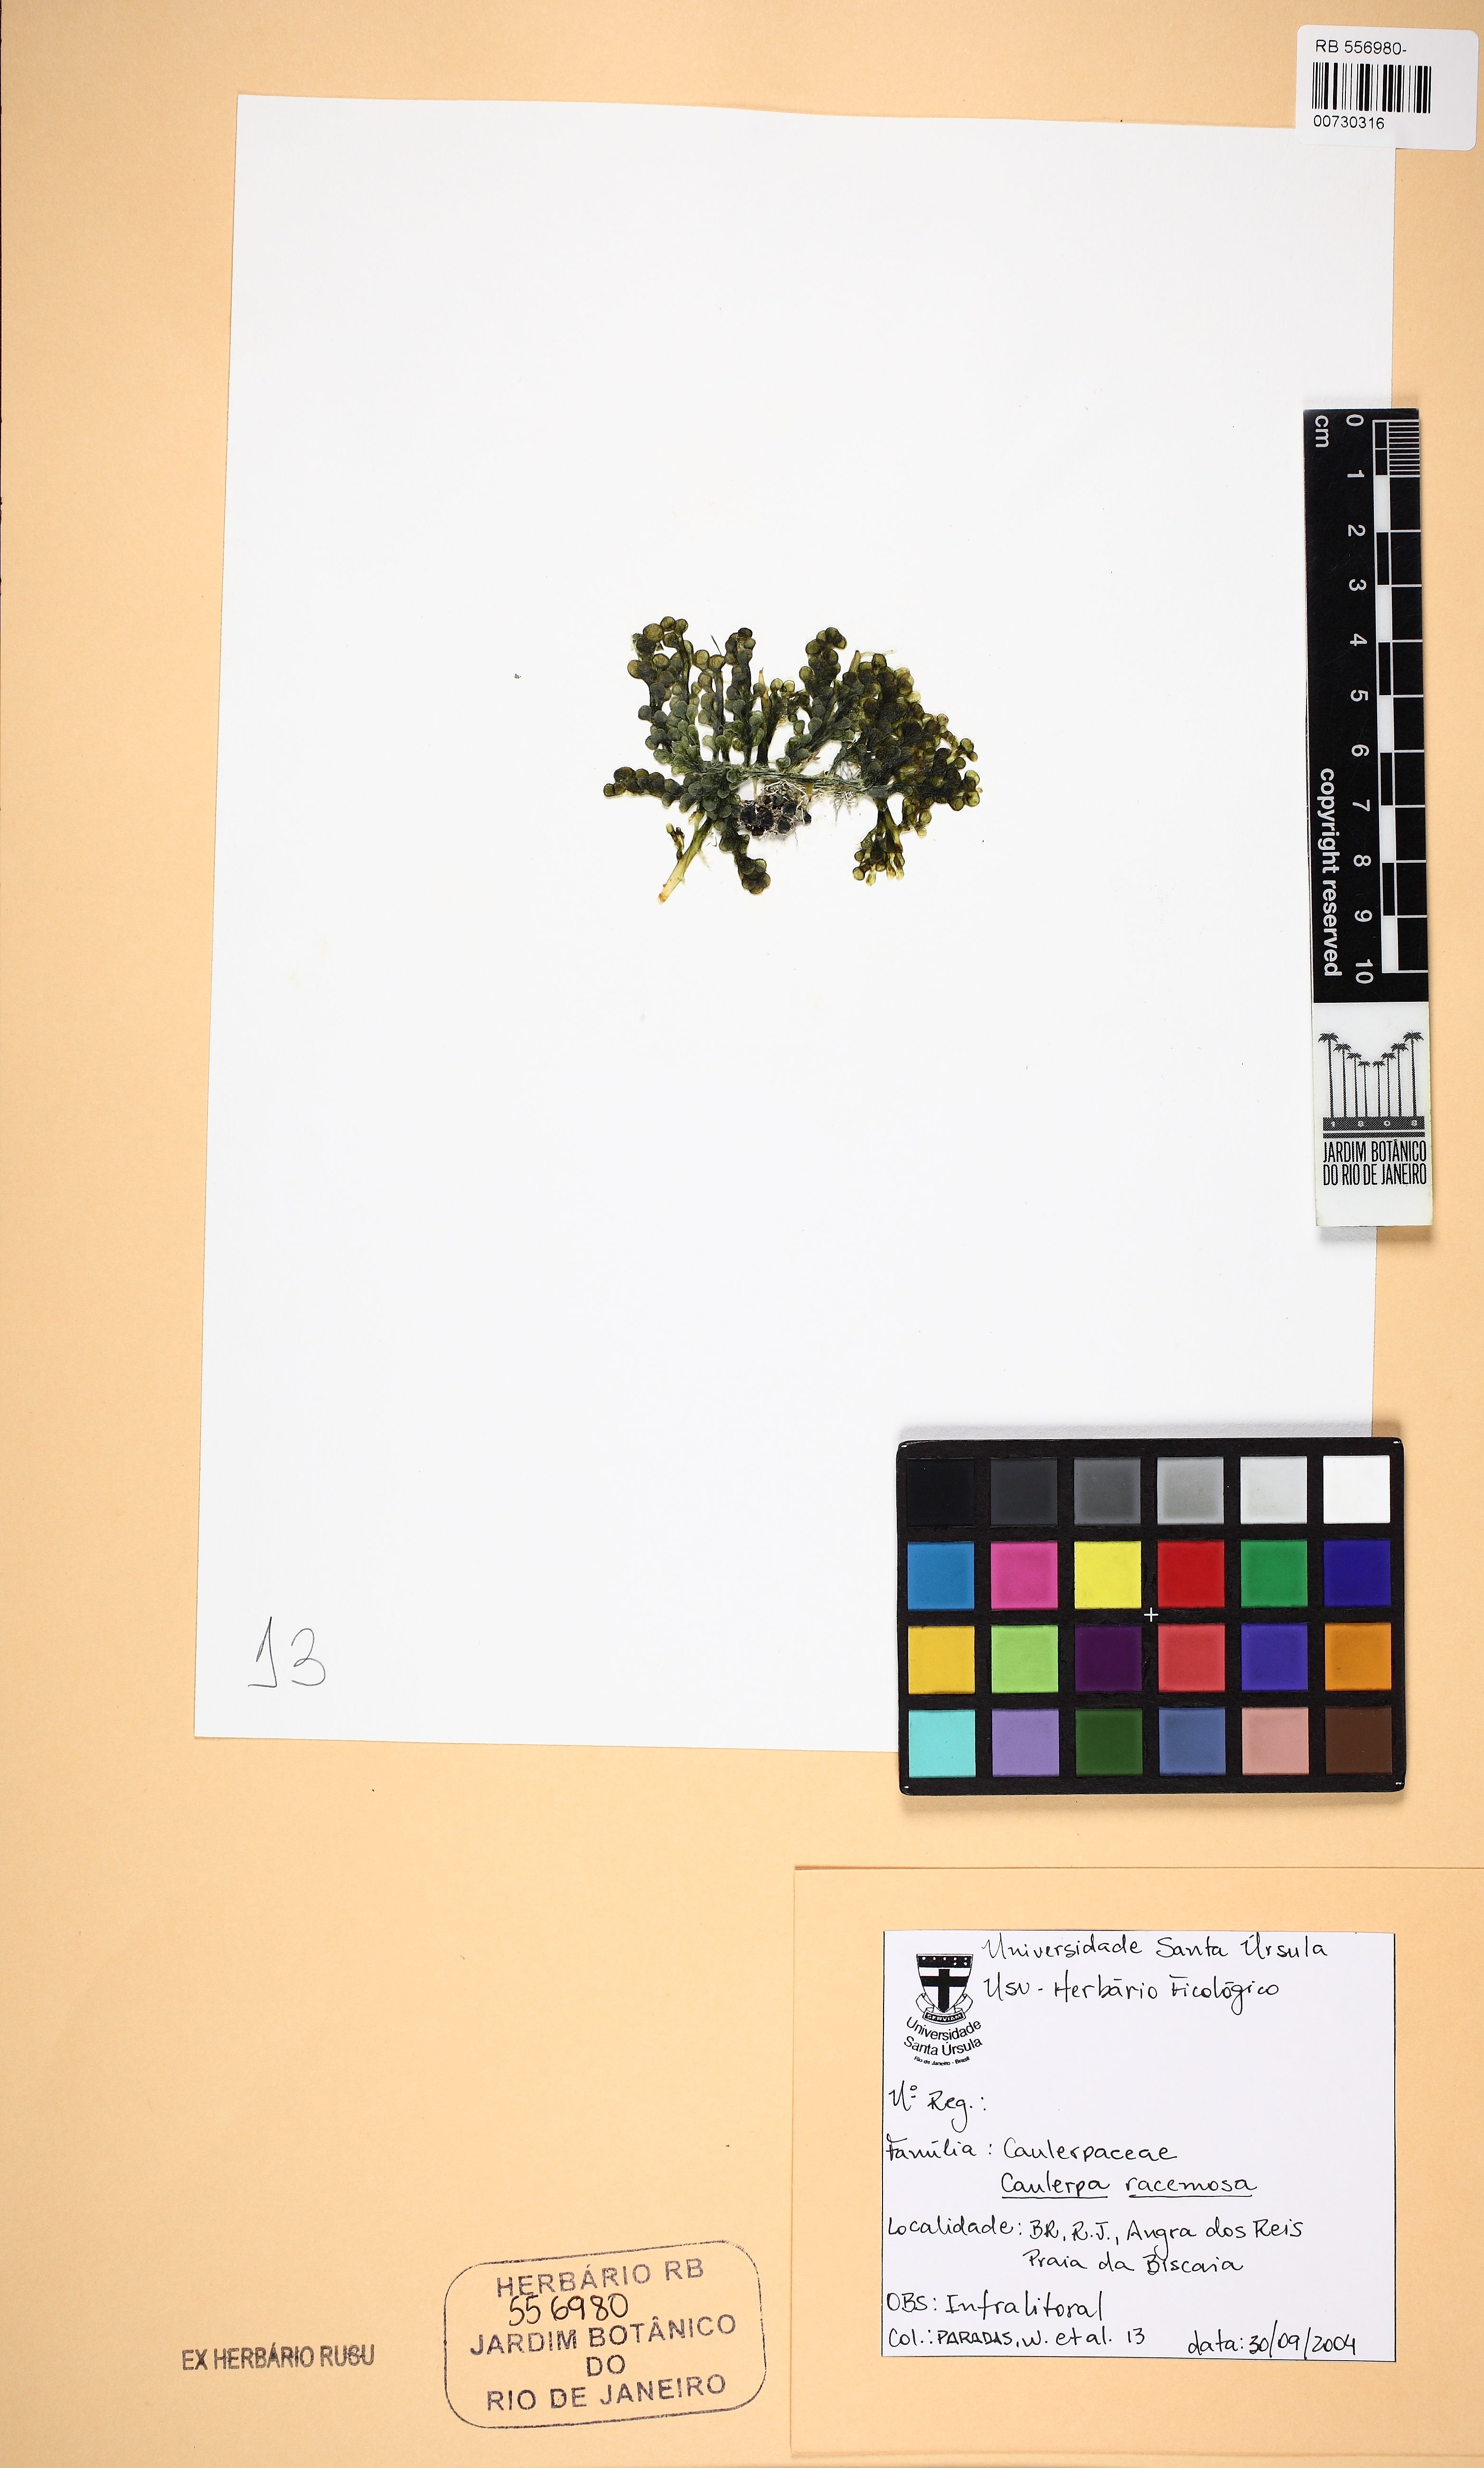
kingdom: Plantae
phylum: Chlorophyta
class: Ulvophyceae
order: Bryopsidales
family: Caulerpaceae
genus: Caulerpa
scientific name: Caulerpa racemosa
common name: Green grape algae
